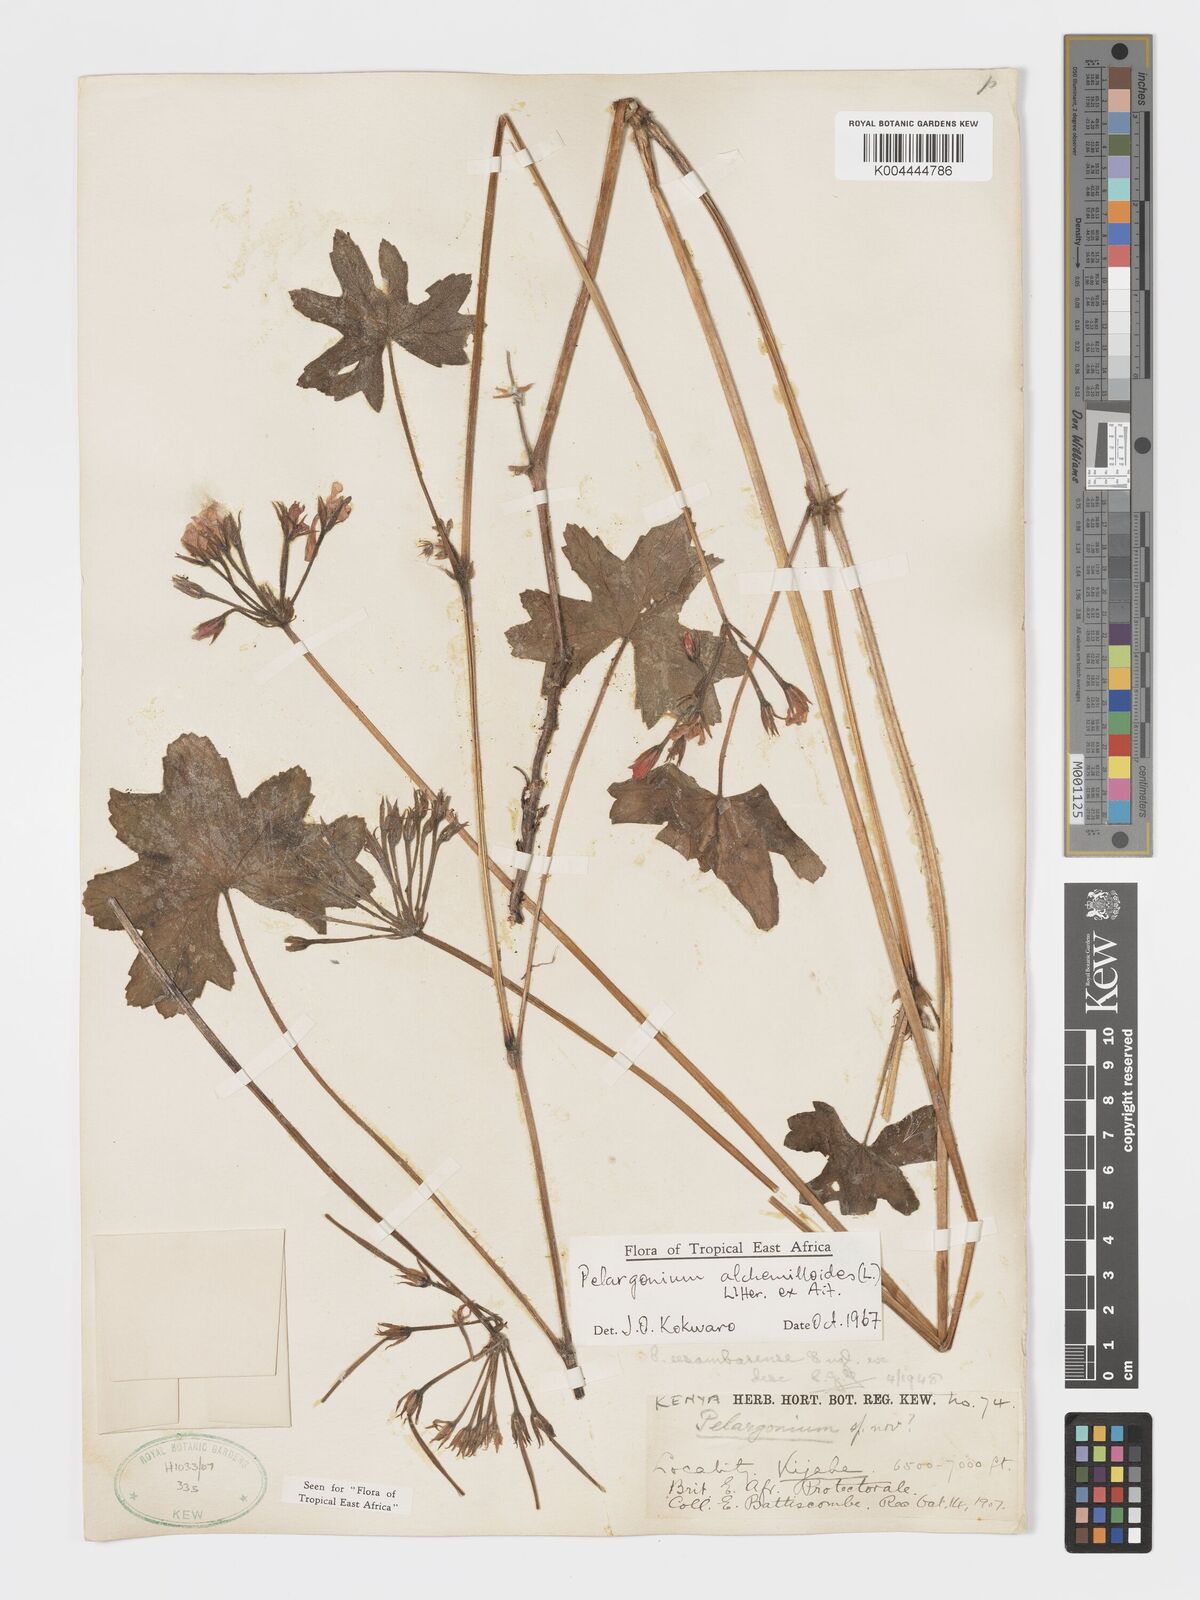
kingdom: Plantae
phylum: Tracheophyta
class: Magnoliopsida
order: Geraniales
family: Geraniaceae
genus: Pelargonium
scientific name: Pelargonium alchemilloides
